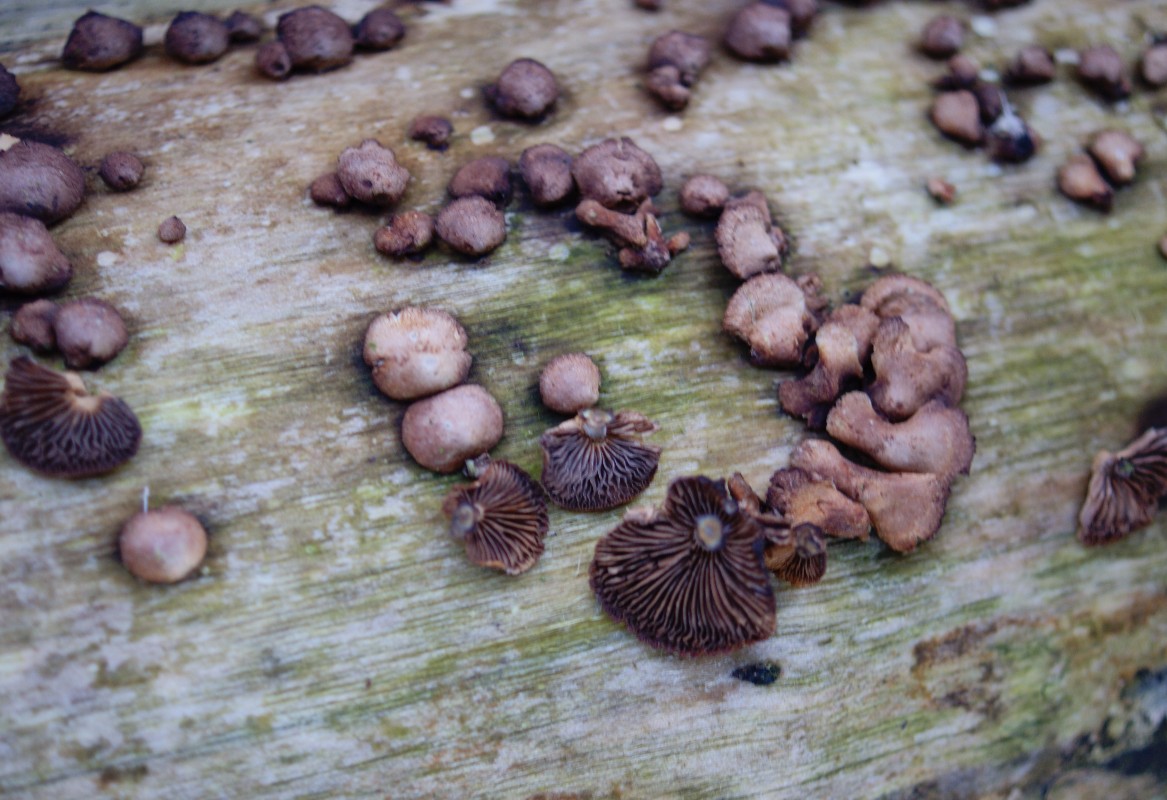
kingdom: Fungi
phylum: Basidiomycota
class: Agaricomycetes
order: Agaricales
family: Strophariaceae
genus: Deconica
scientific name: Deconica horizontalis
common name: ved-stråhat
